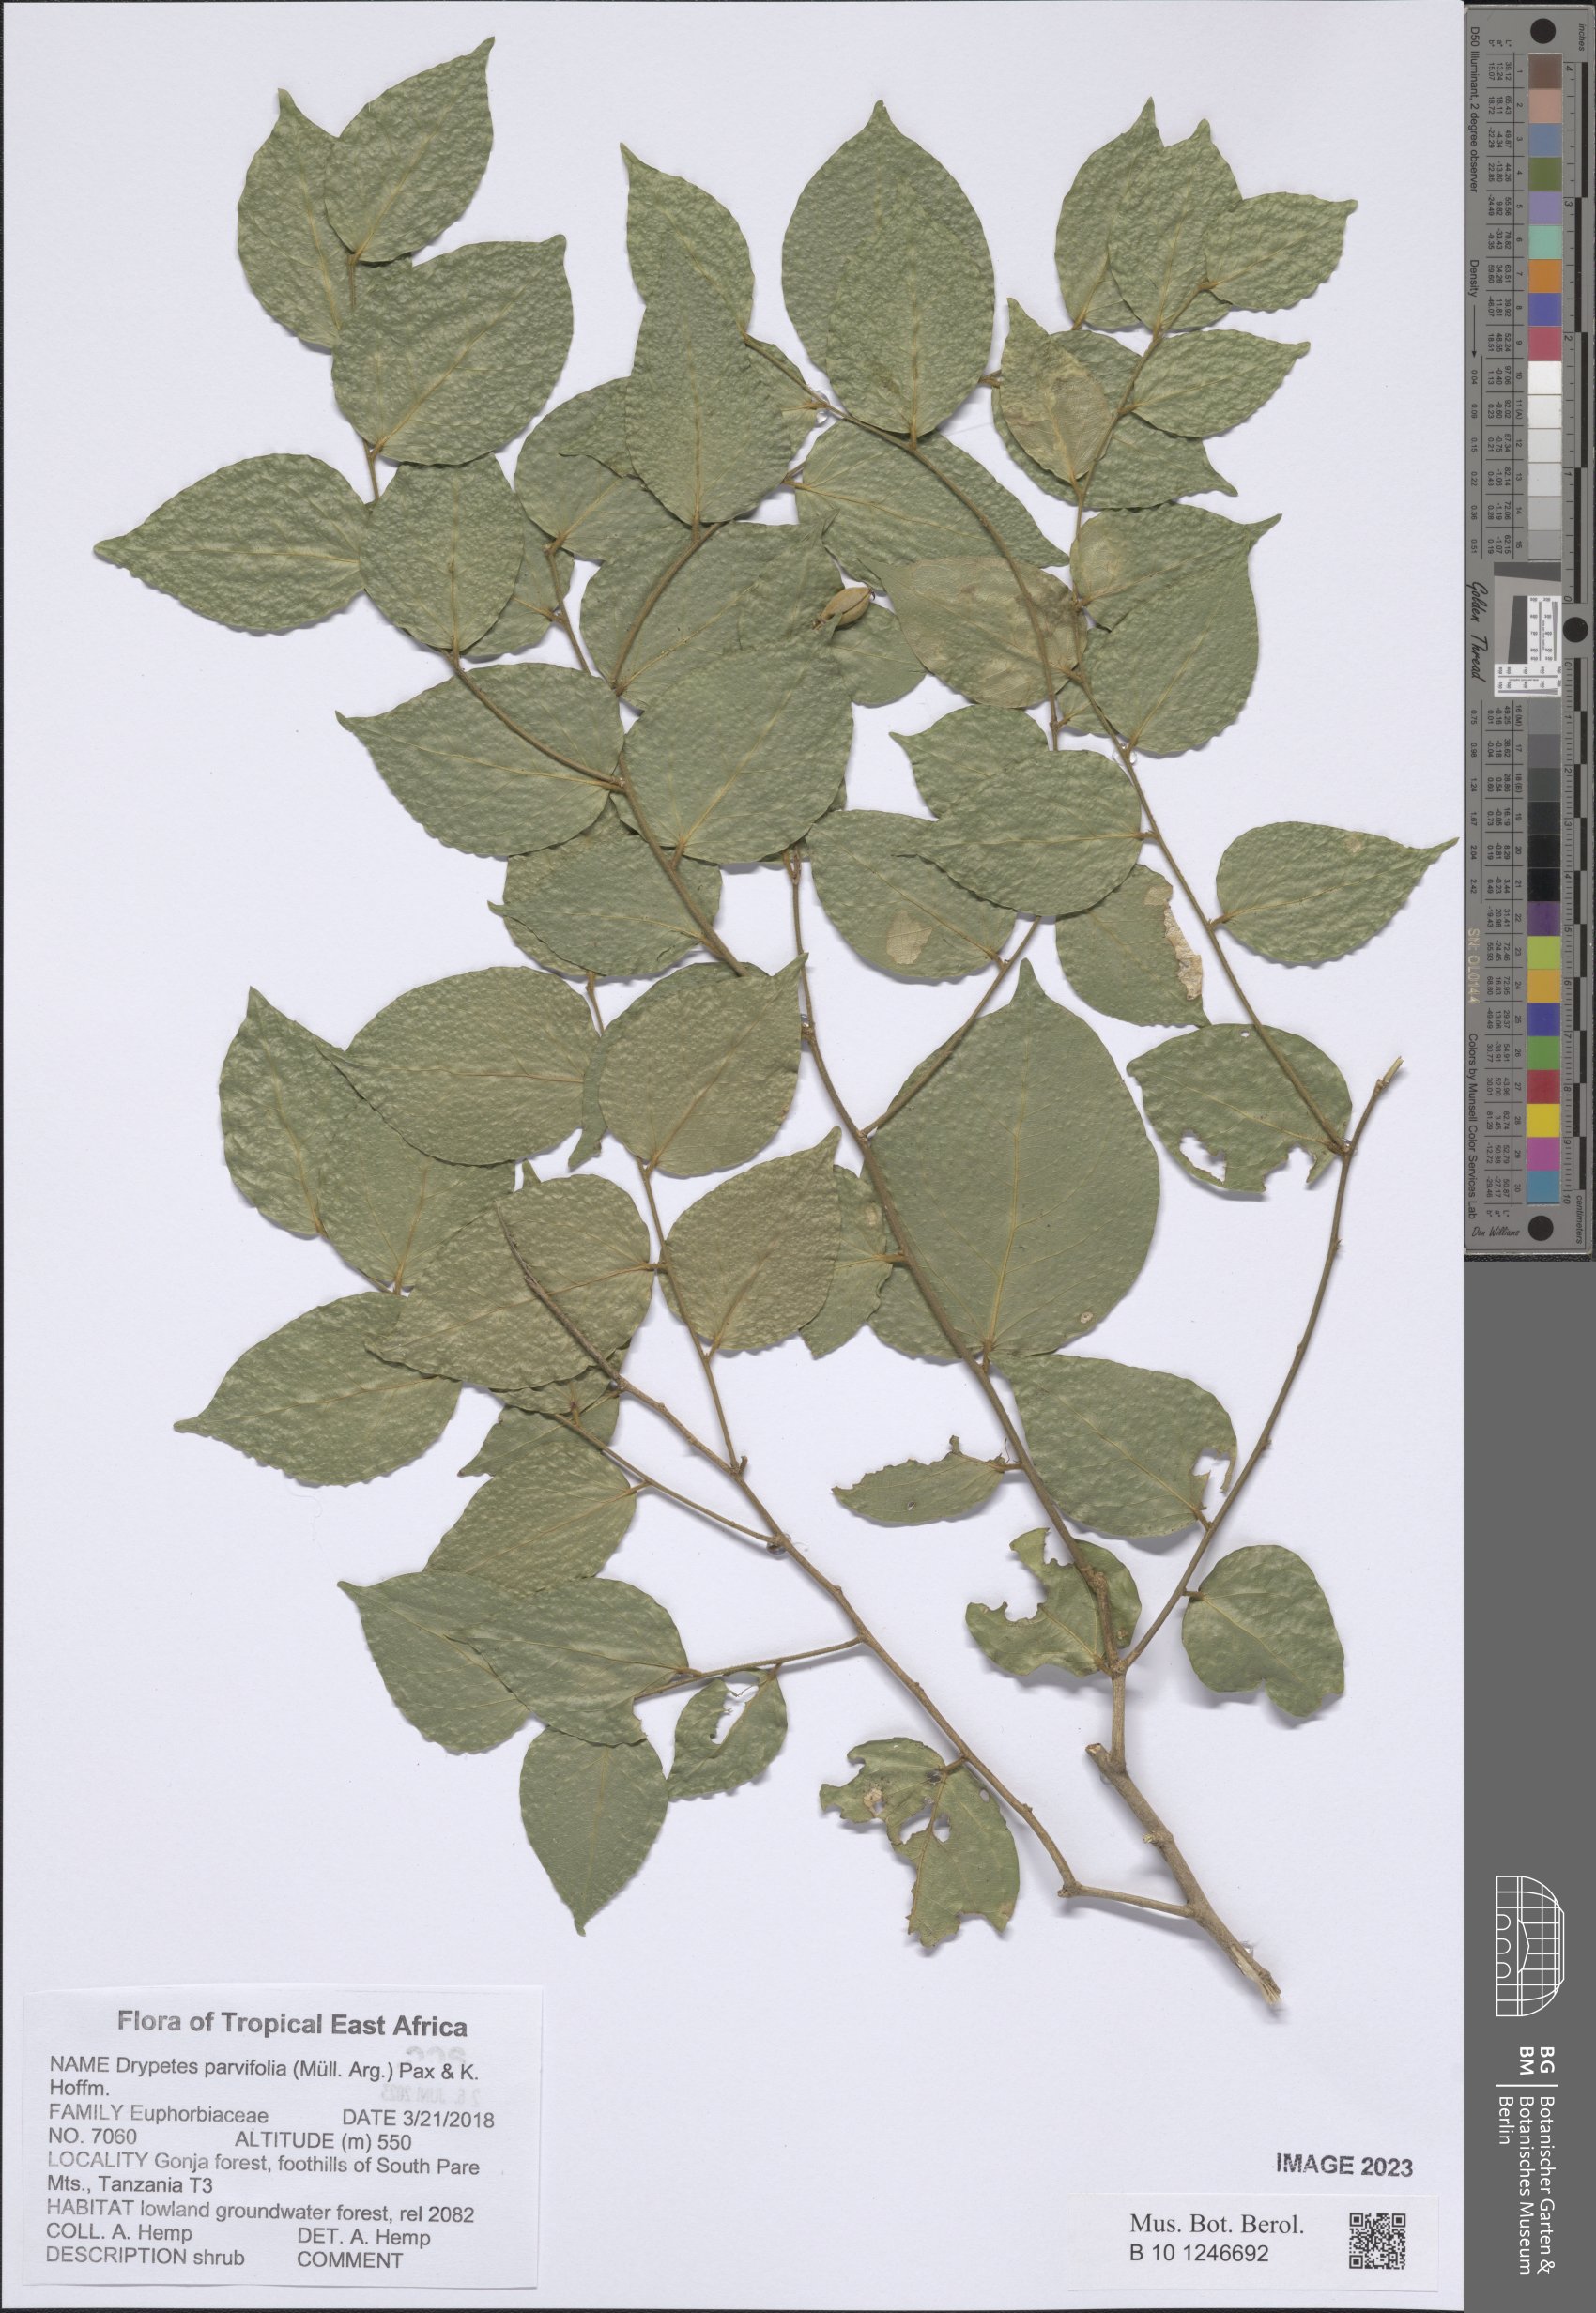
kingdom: Plantae
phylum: Tracheophyta
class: Magnoliopsida
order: Malpighiales
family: Putranjivaceae
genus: Drypetes
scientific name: Drypetes parvifolia
